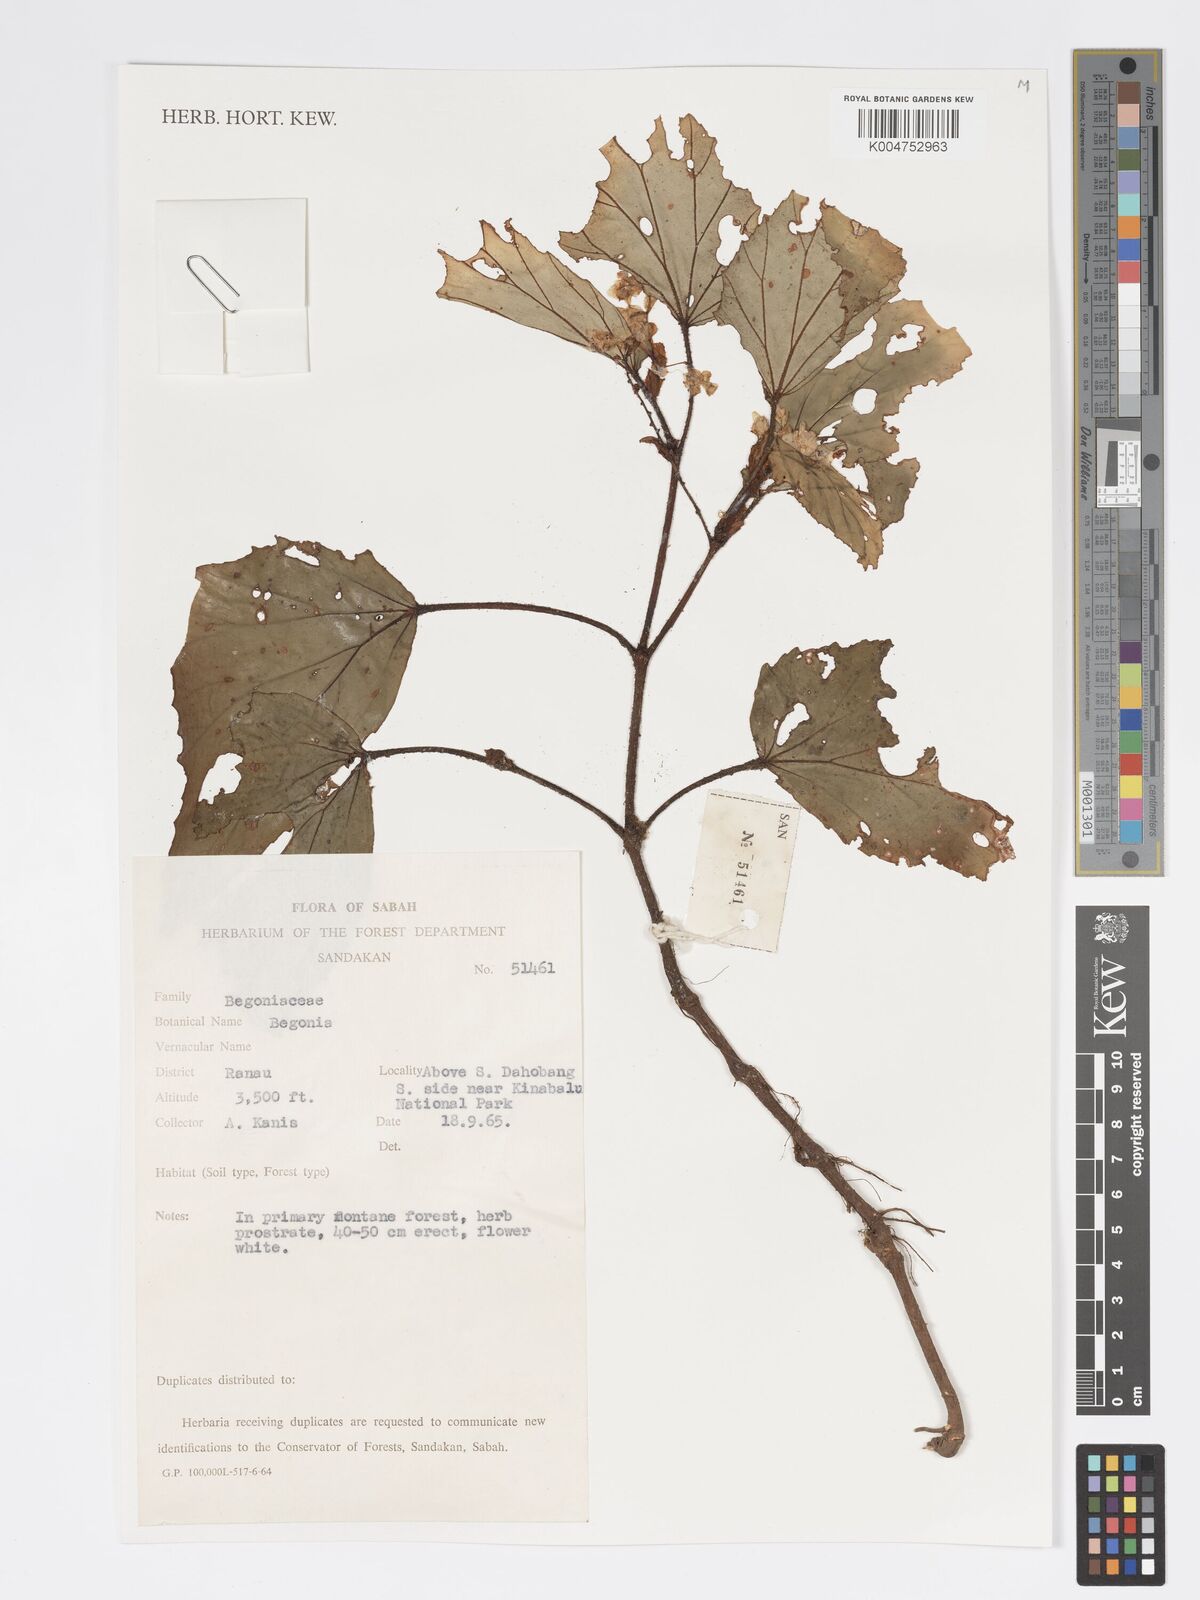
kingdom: Plantae
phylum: Tracheophyta
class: Magnoliopsida
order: Cucurbitales
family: Begoniaceae
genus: Begonia
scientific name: Begonia
